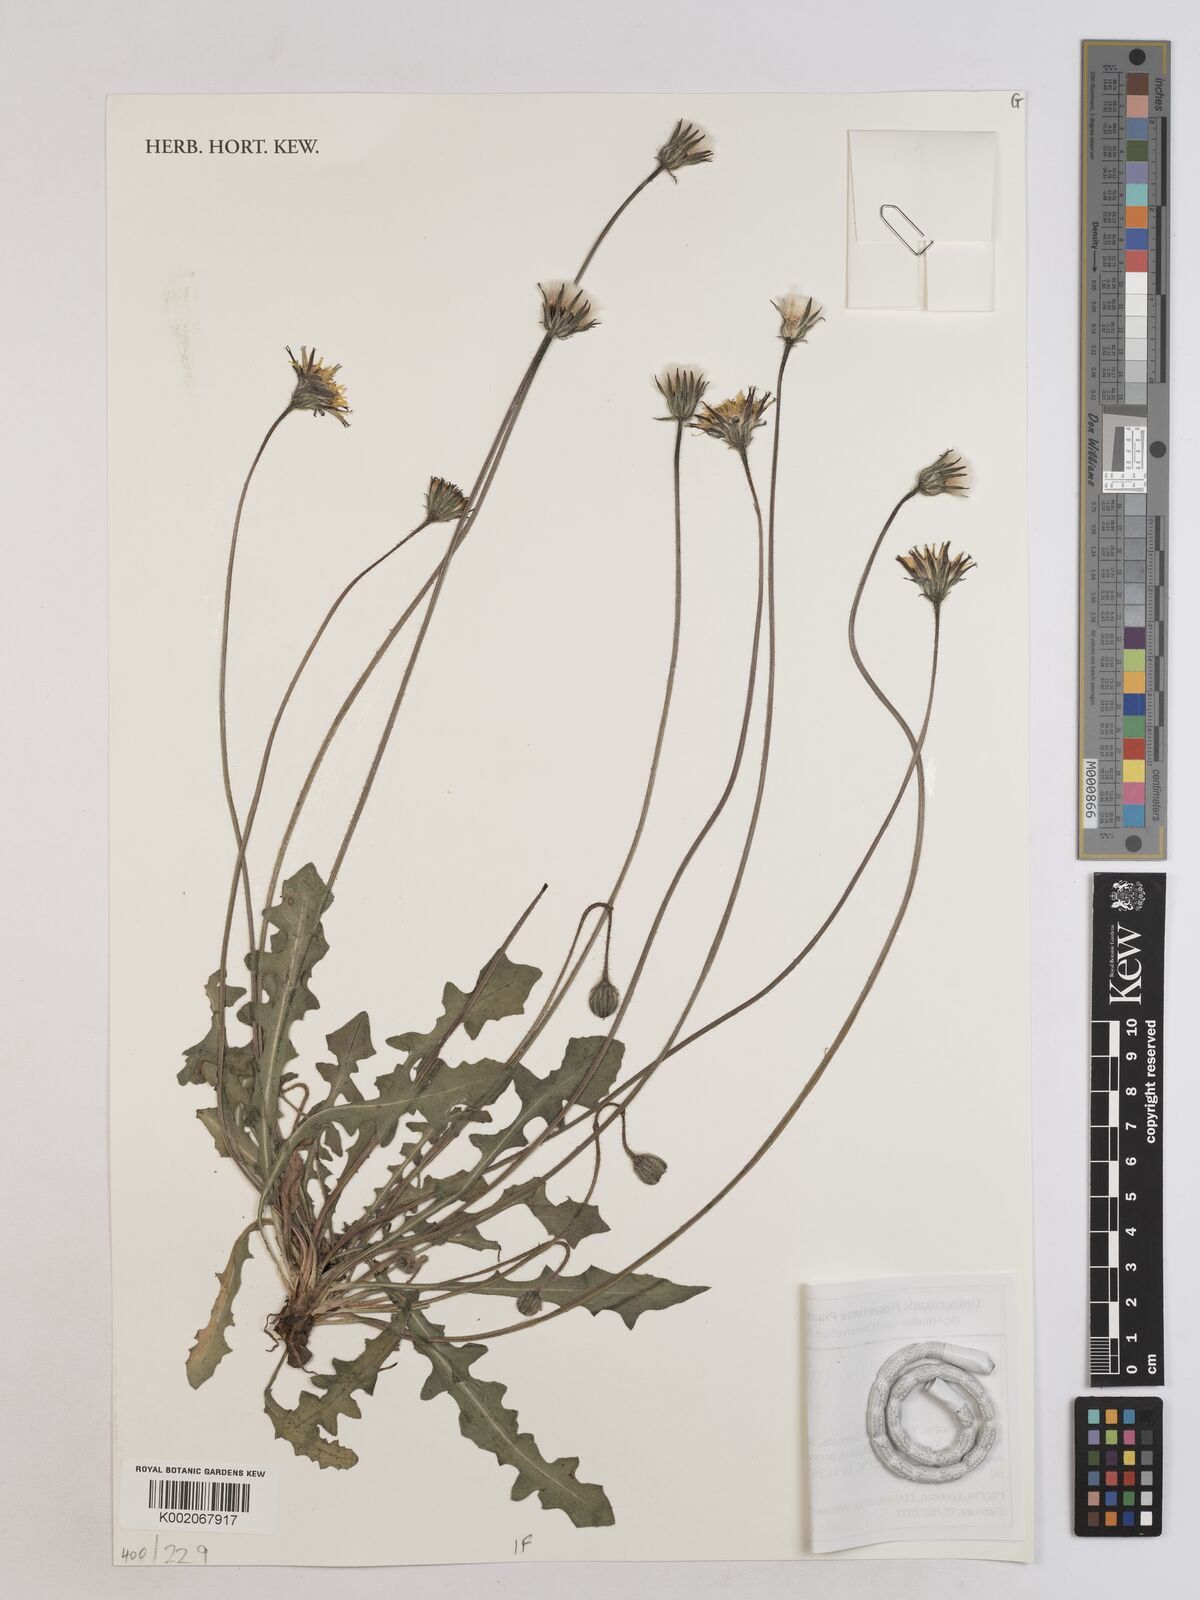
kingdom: Plantae
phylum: Tracheophyta
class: Magnoliopsida
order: Asterales
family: Asteraceae
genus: Leontodon
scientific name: Leontodon hirtus
